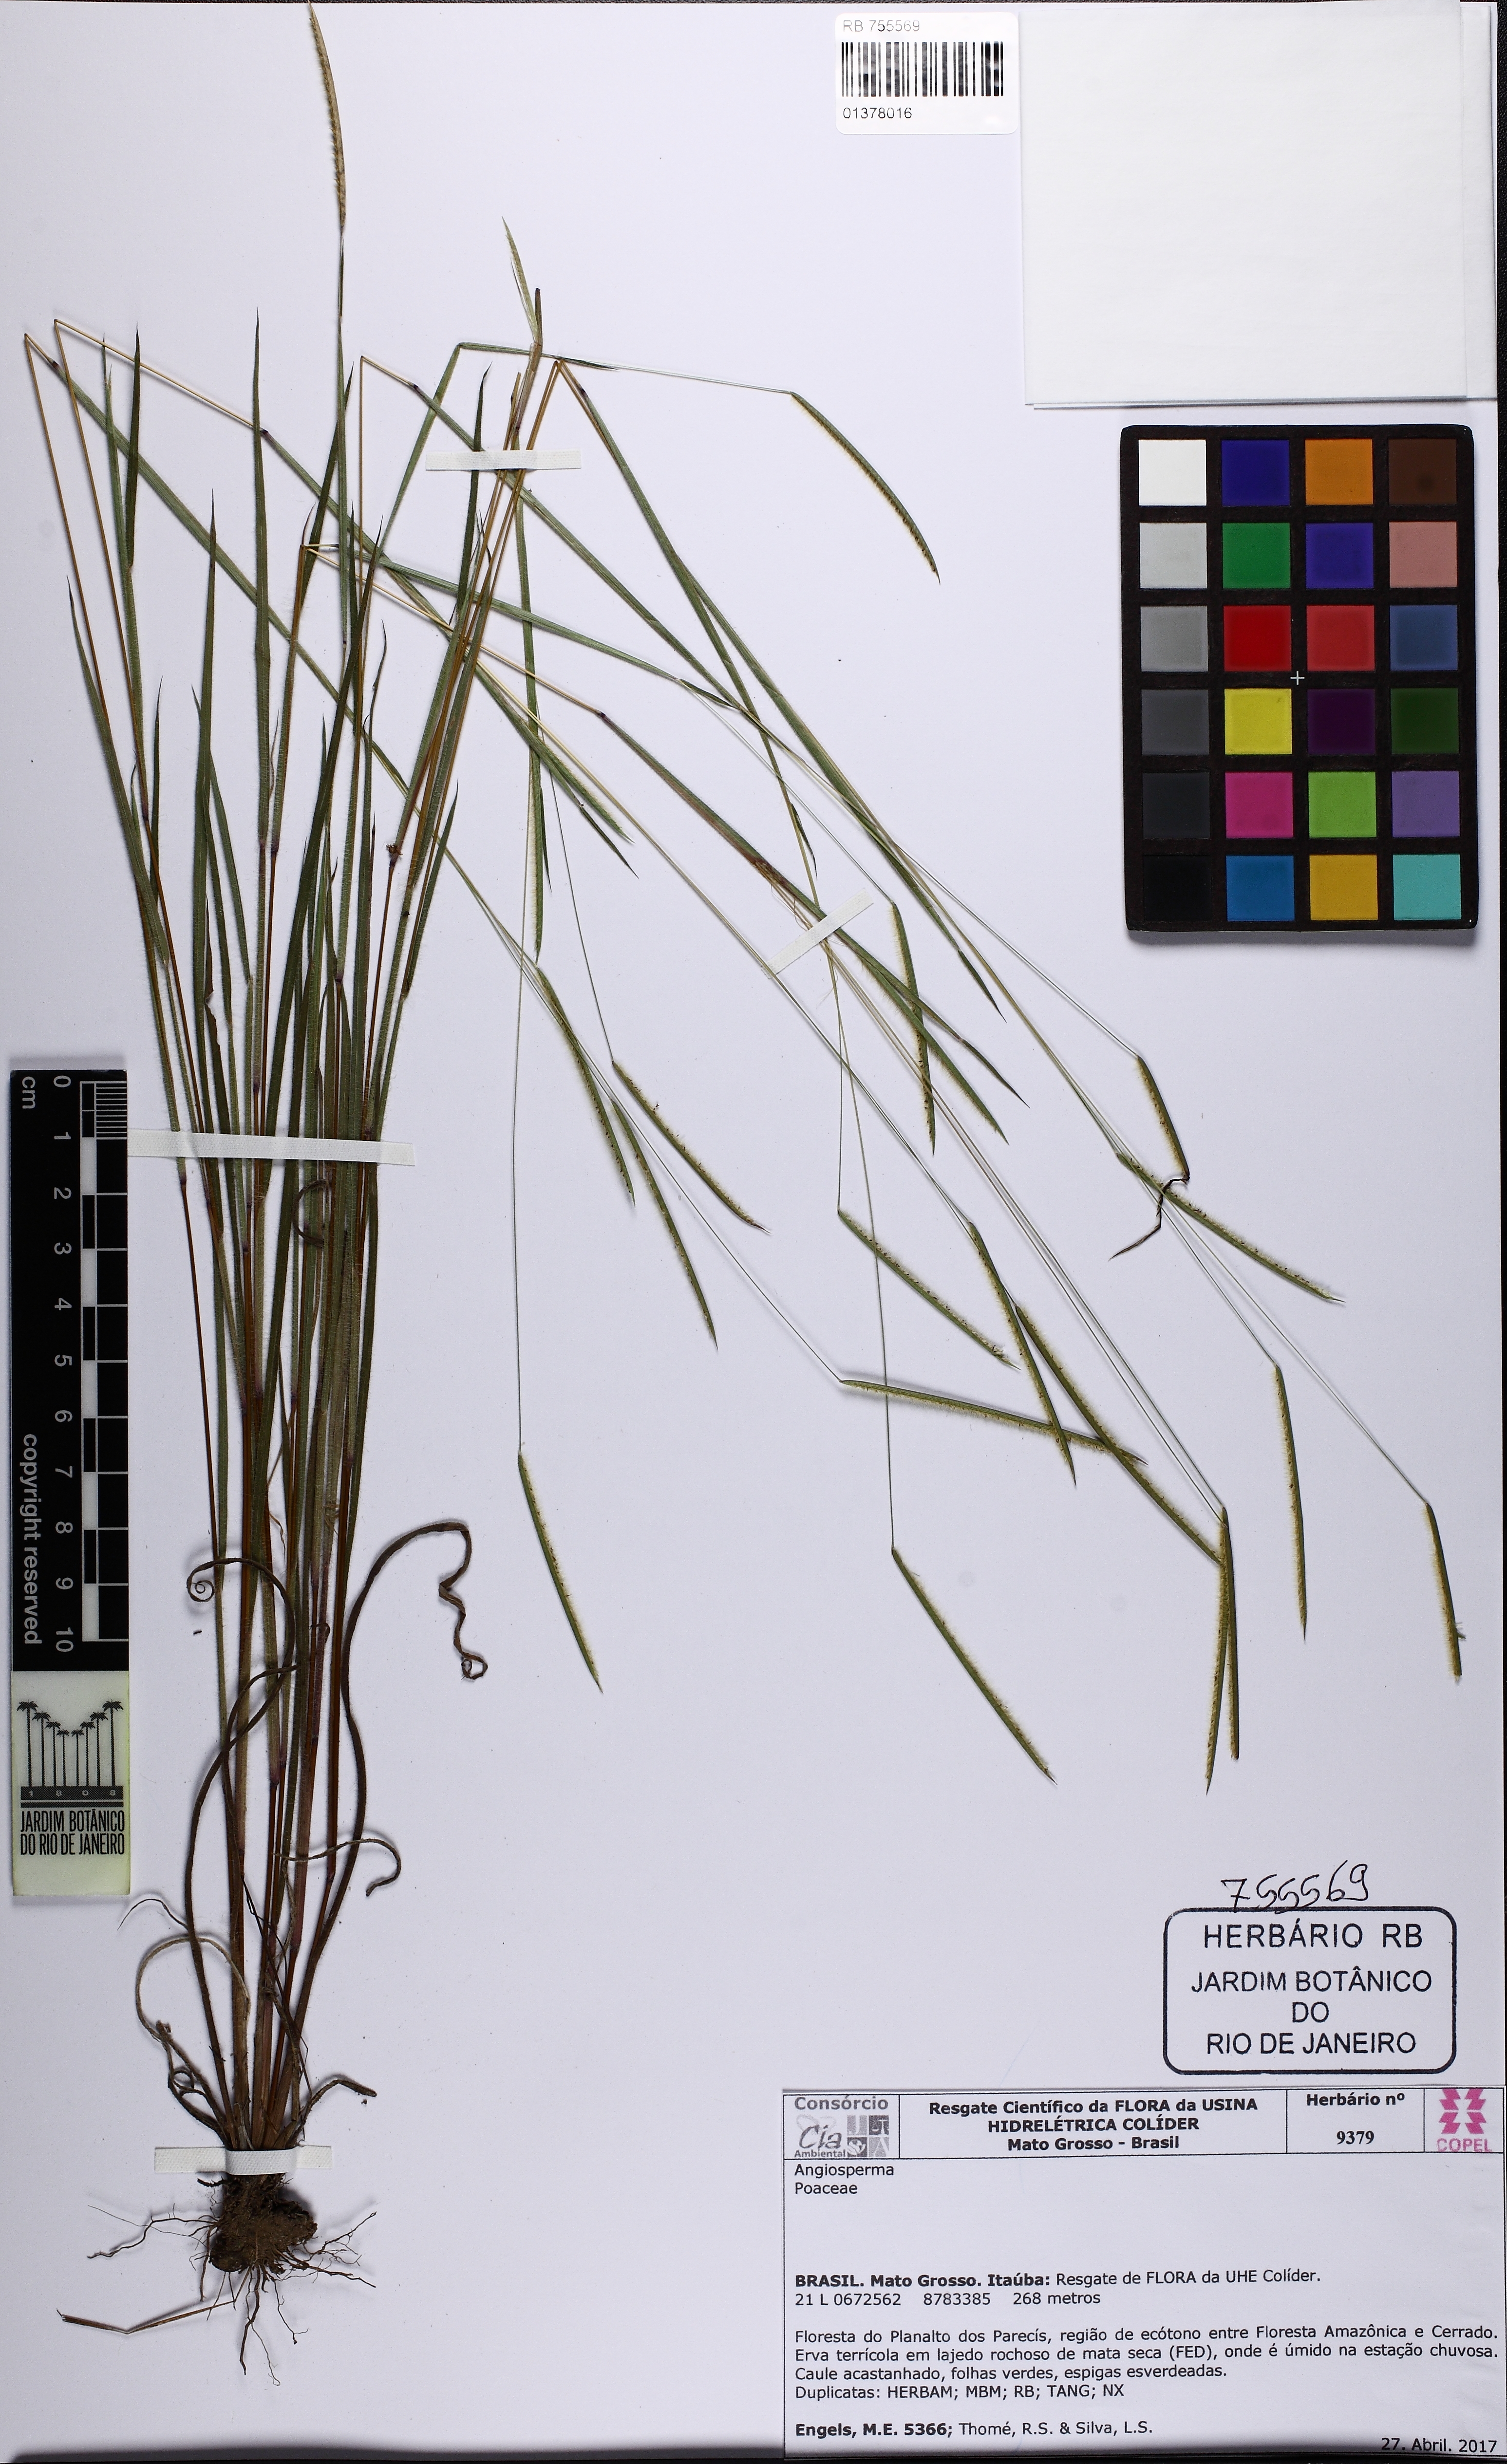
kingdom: Plantae
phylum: Tracheophyta
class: Liliopsida
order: Poales
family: Poaceae
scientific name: Poaceae
